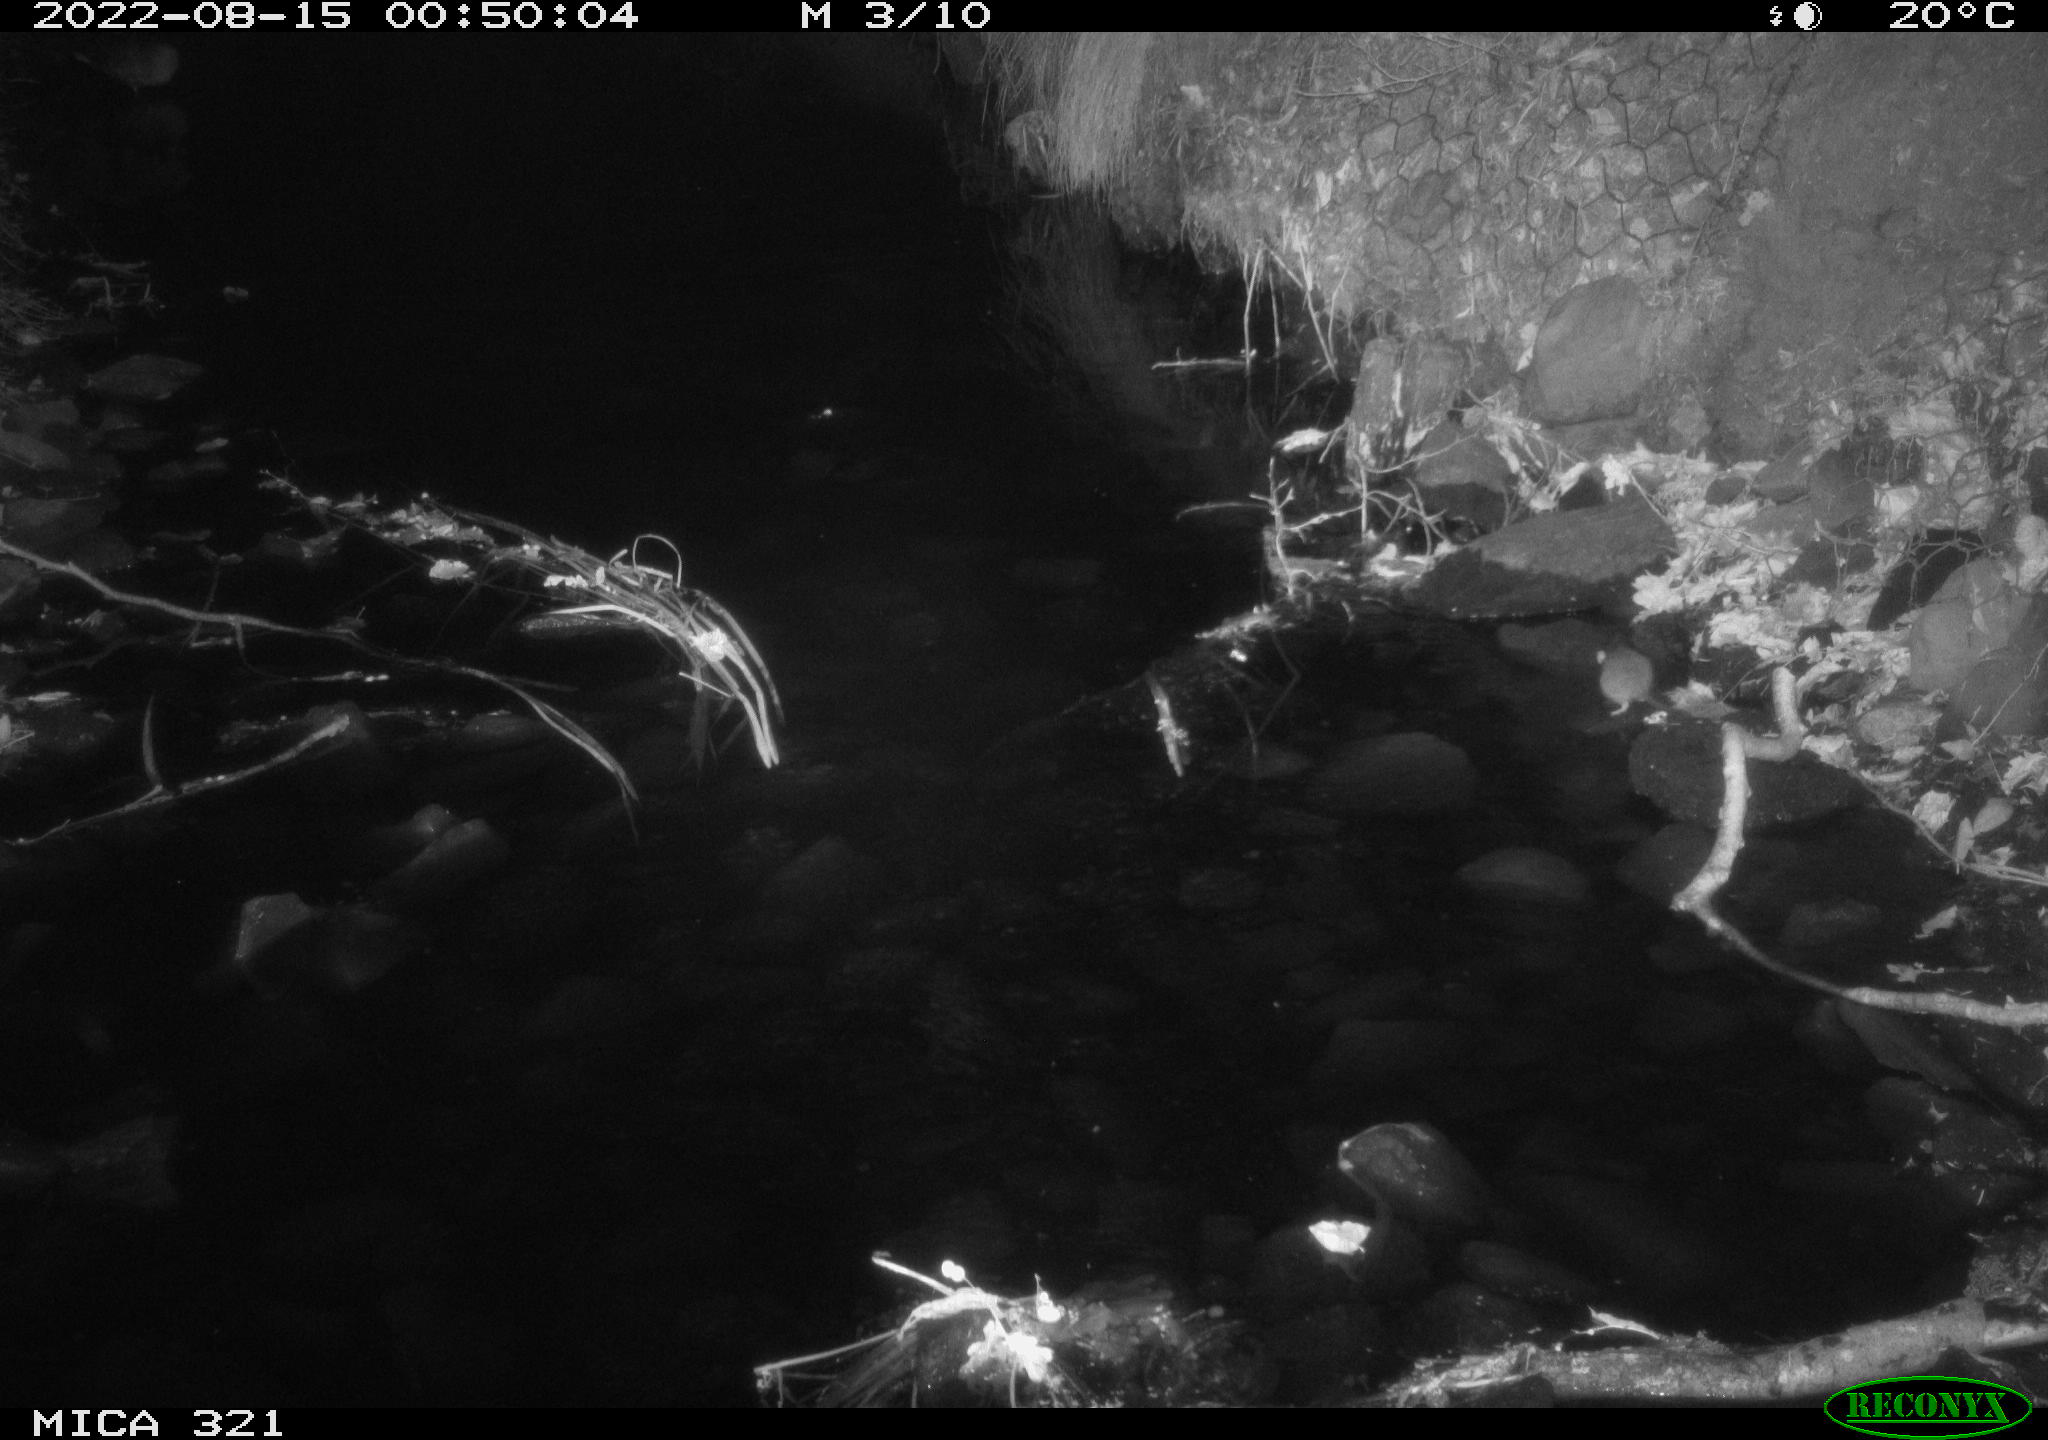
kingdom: Animalia
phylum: Chordata
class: Mammalia
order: Rodentia
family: Muridae
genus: Rattus
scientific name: Rattus norvegicus
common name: Brown rat
